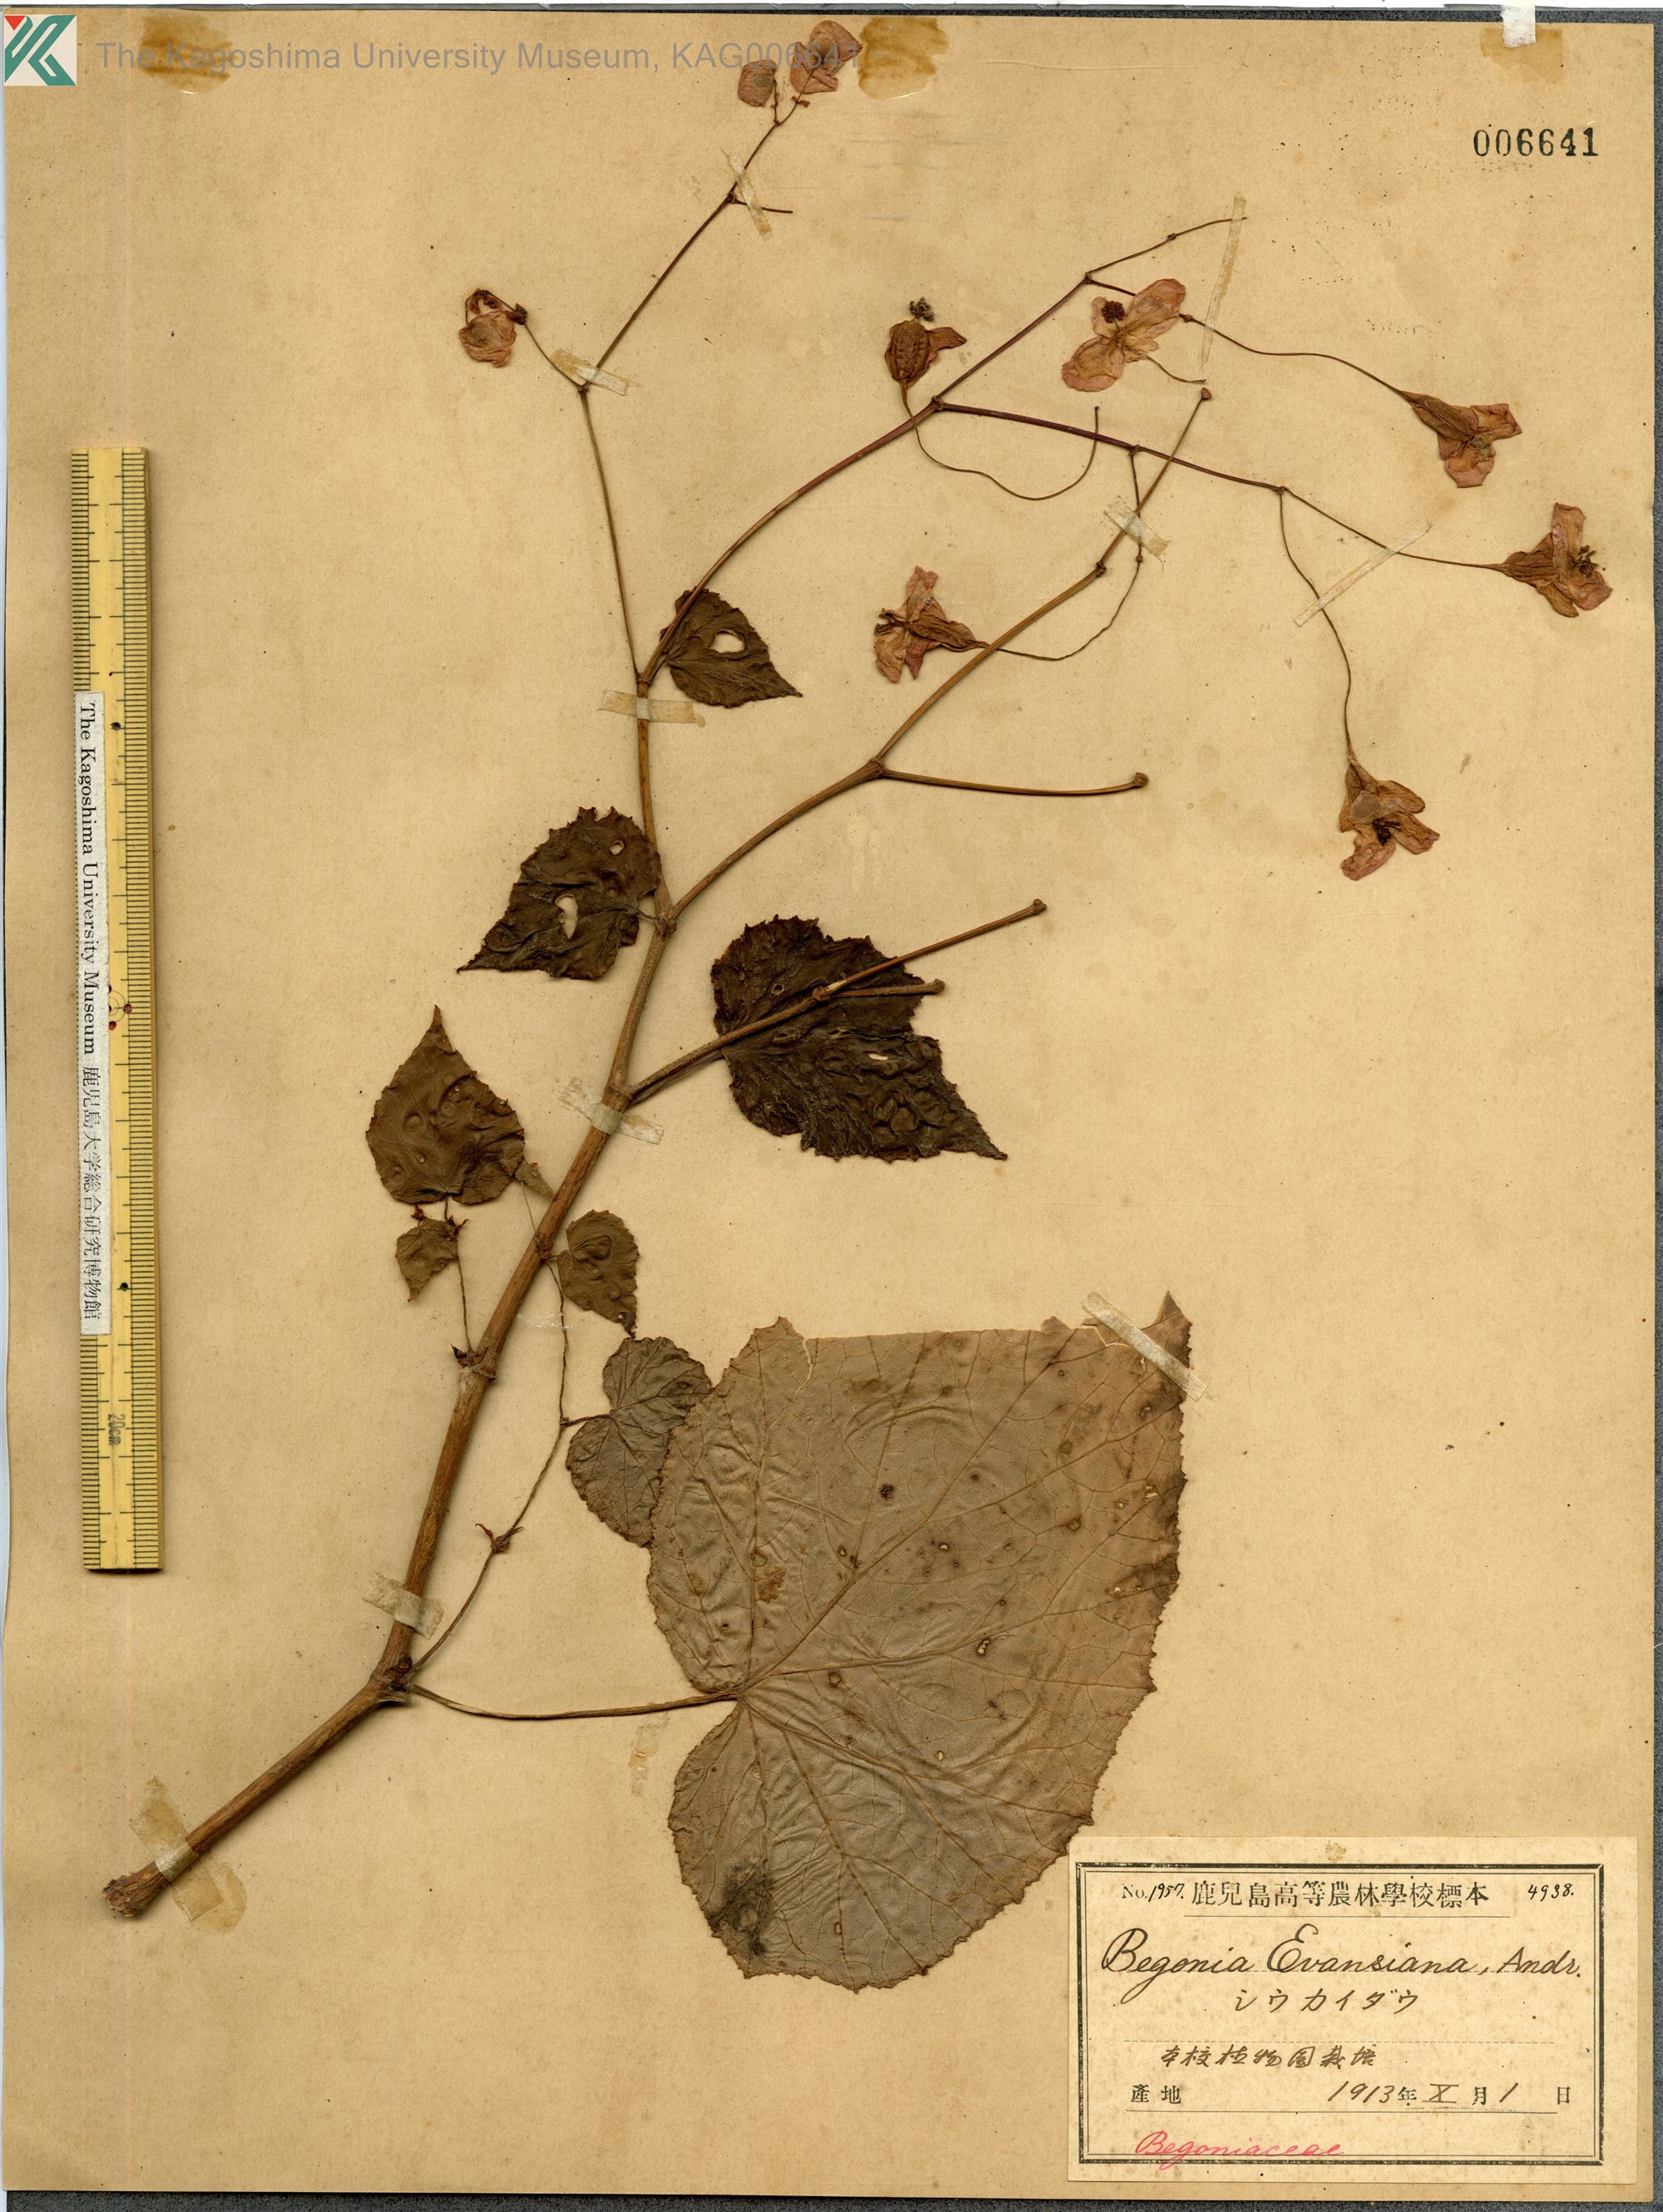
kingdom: Plantae
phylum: Tracheophyta
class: Magnoliopsida
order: Cucurbitales
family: Begoniaceae
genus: Begonia
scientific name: Begonia grandis
